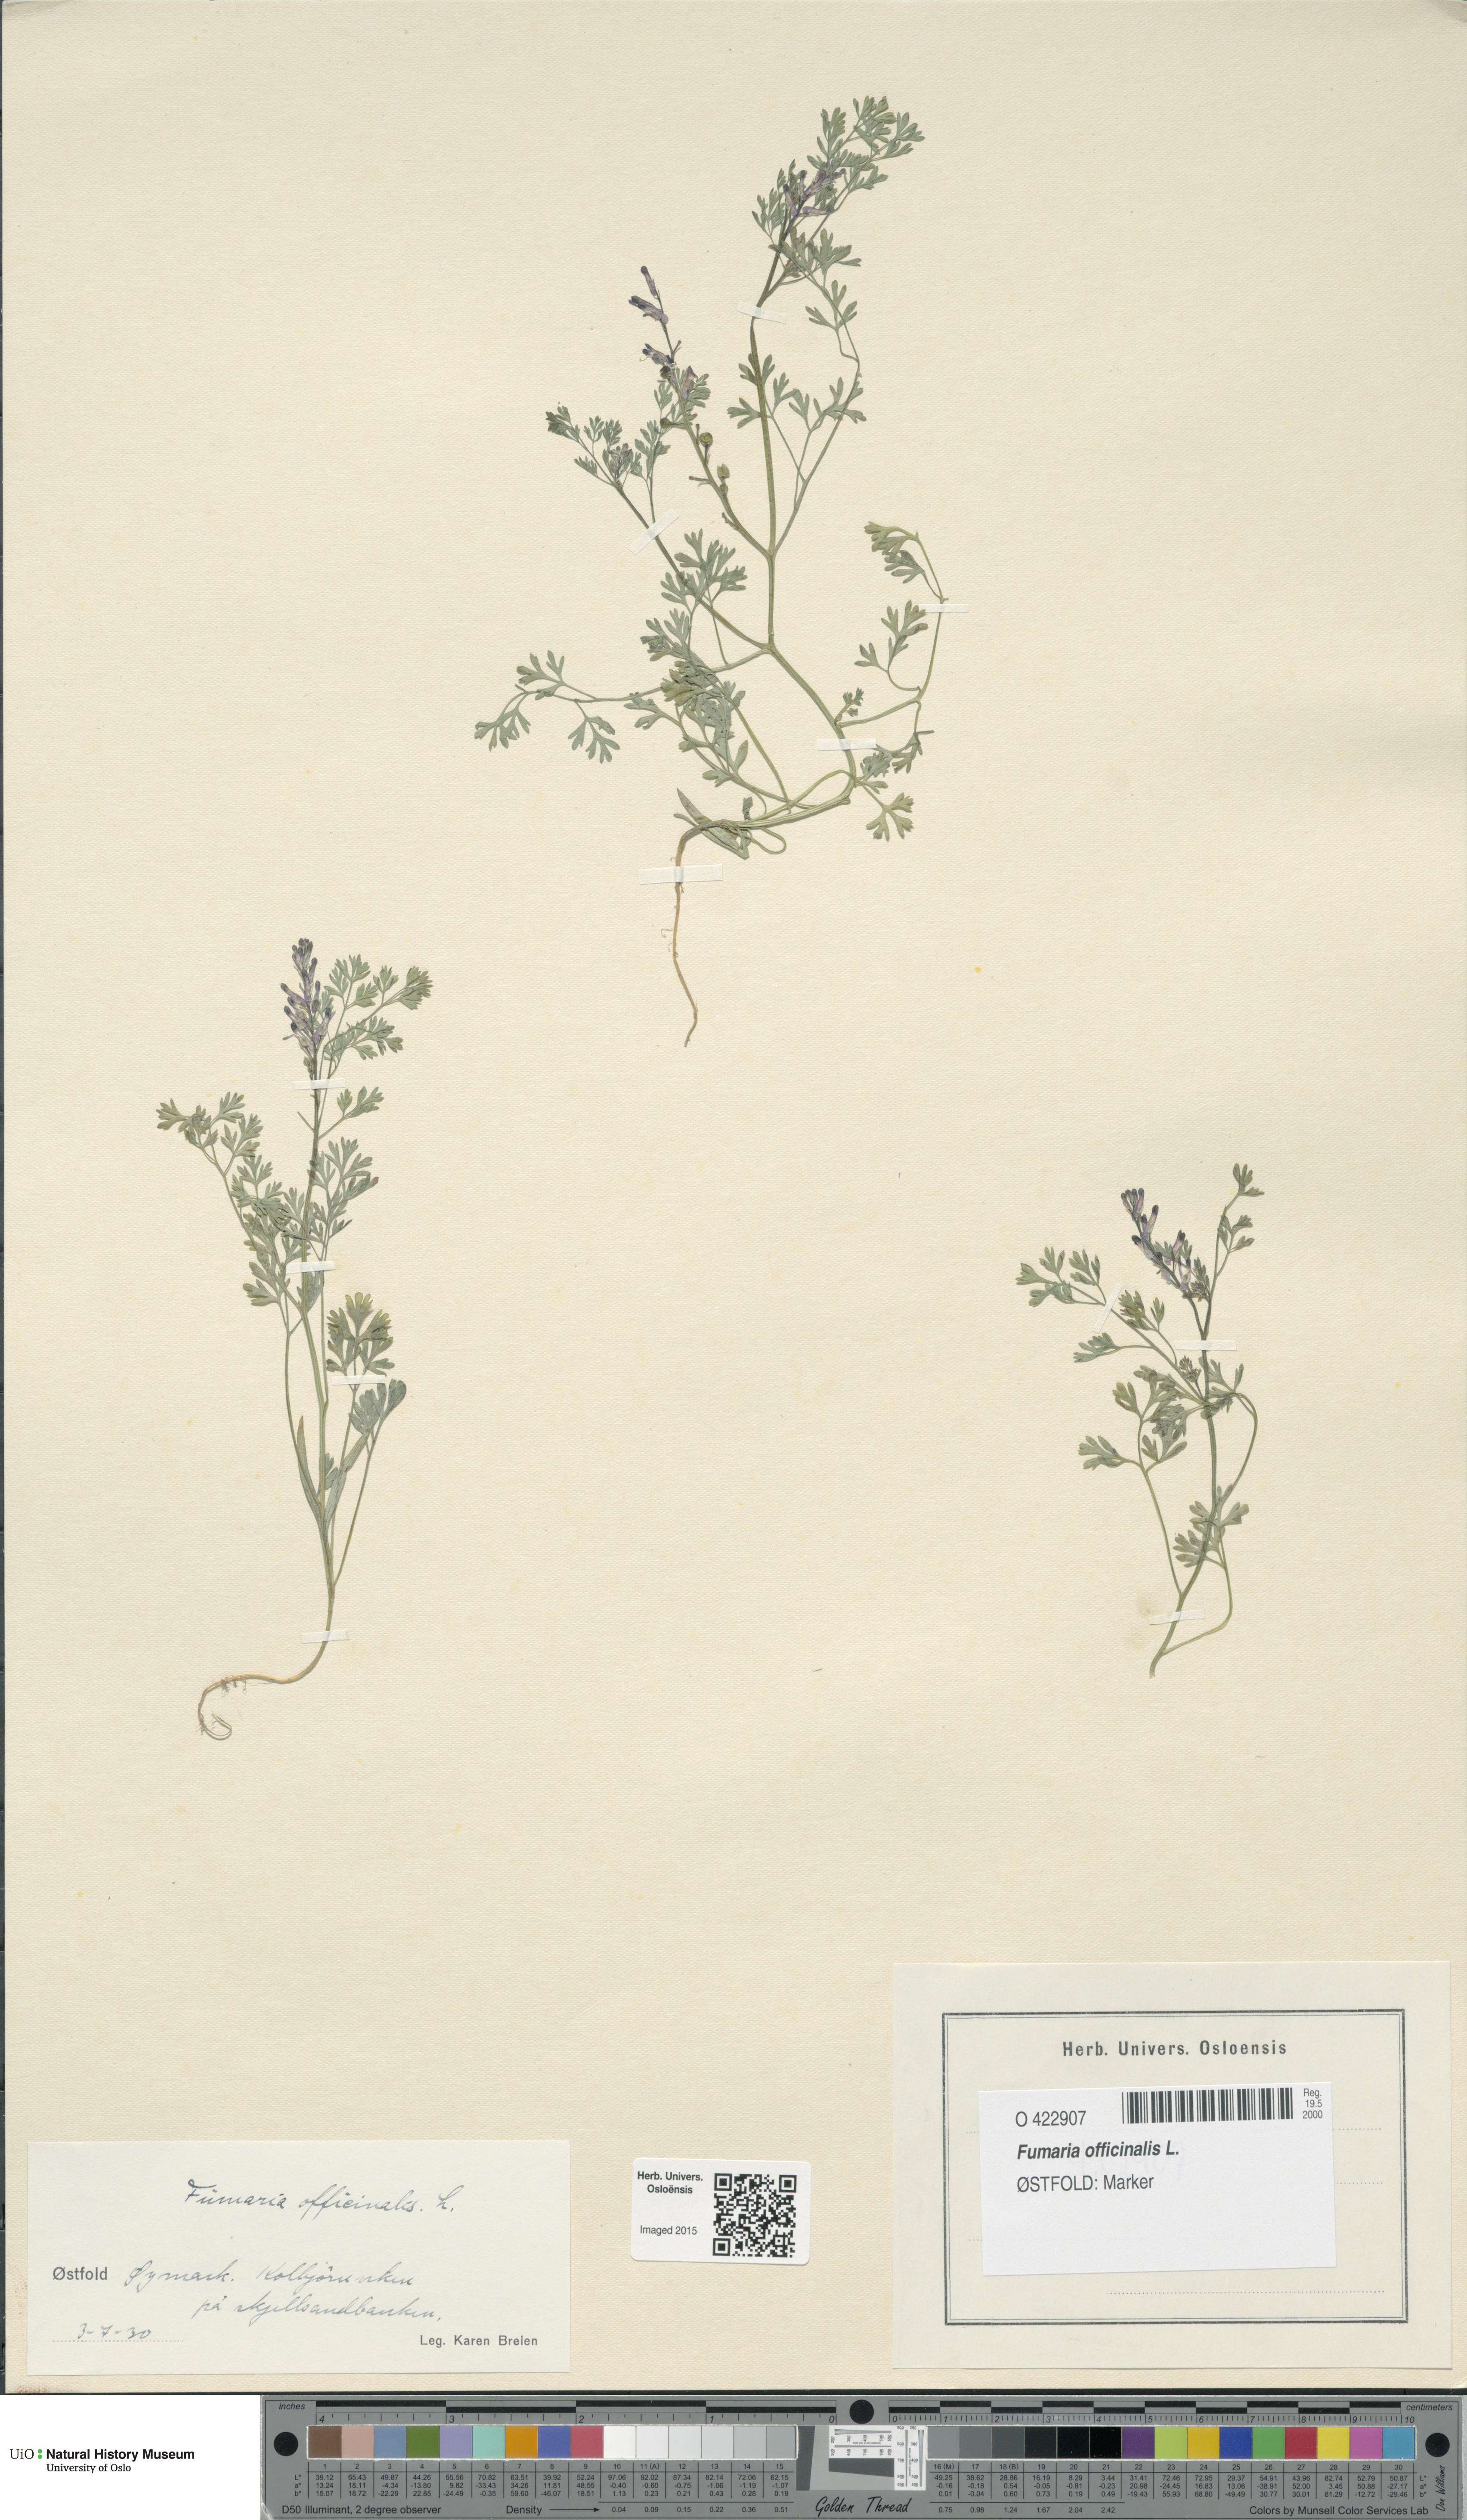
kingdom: Plantae
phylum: Tracheophyta
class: Magnoliopsida
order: Ranunculales
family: Papaveraceae
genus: Fumaria
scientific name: Fumaria officinalis
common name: Common fumitory
